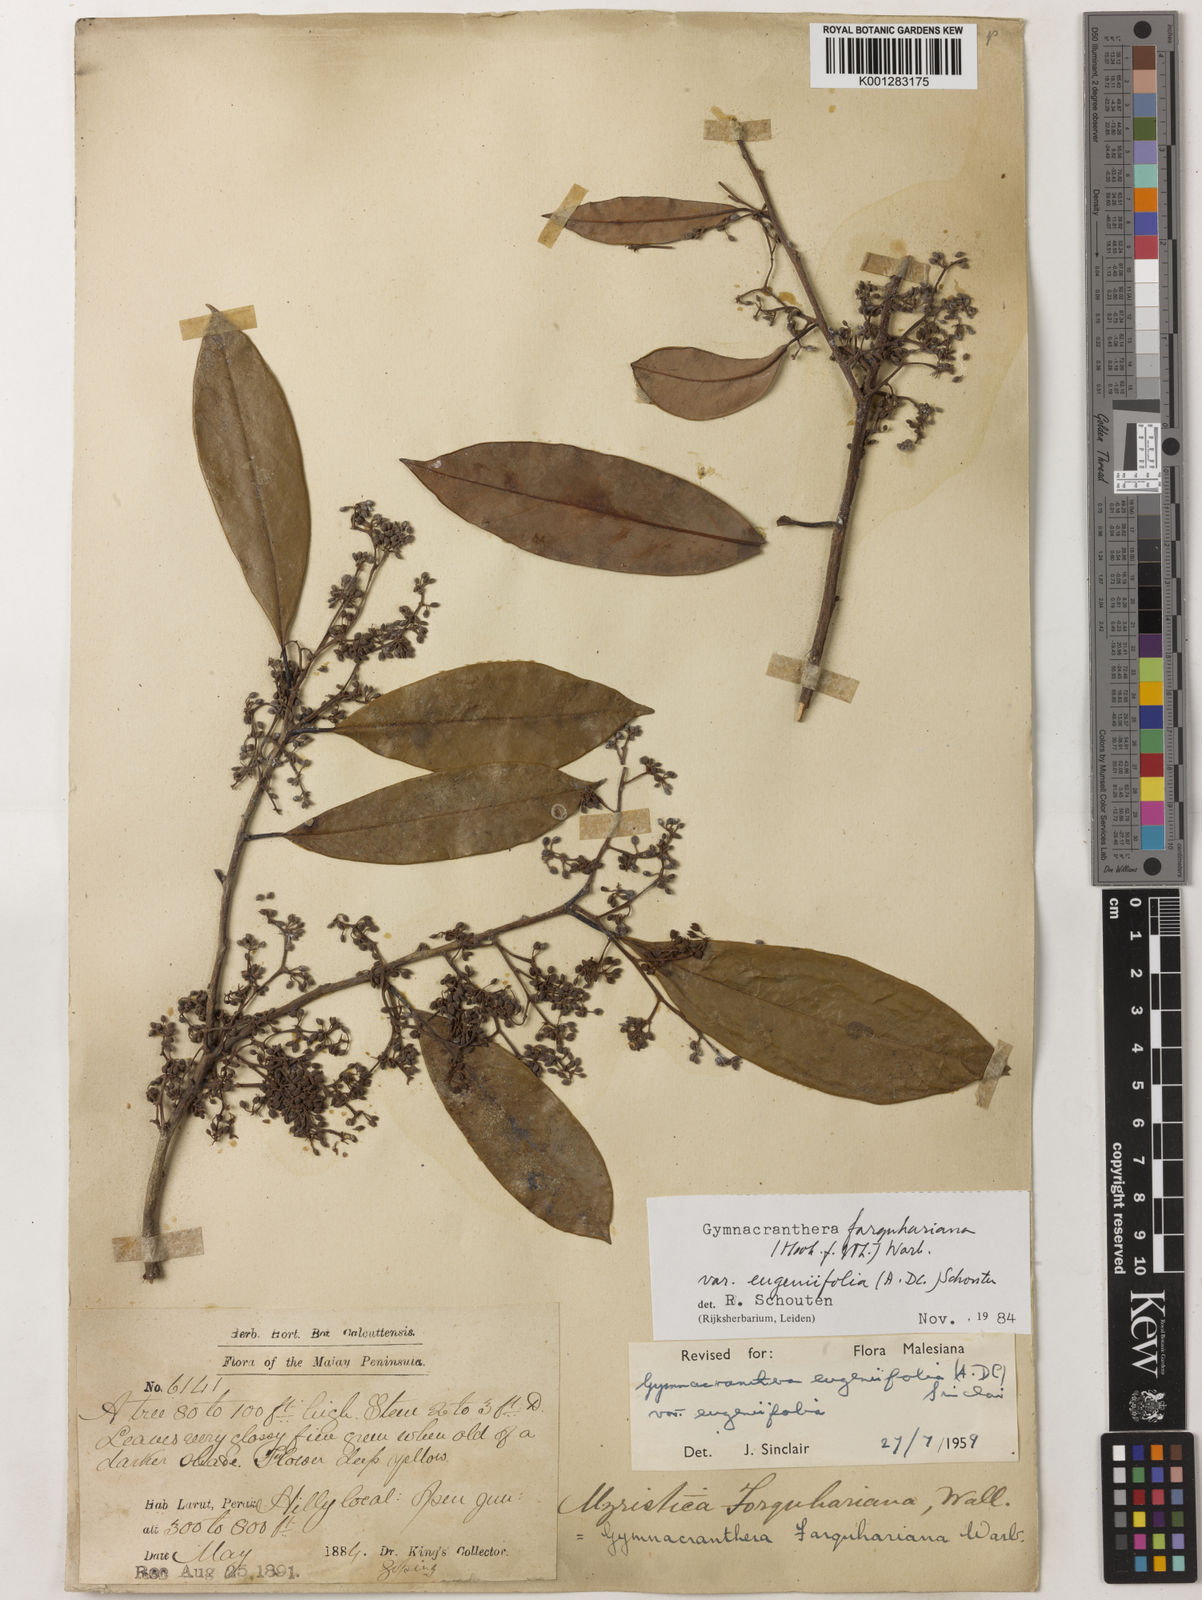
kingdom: Plantae
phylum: Tracheophyta
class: Magnoliopsida
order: Magnoliales
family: Myristicaceae
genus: Gymnacranthera
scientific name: Gymnacranthera farquhariana
